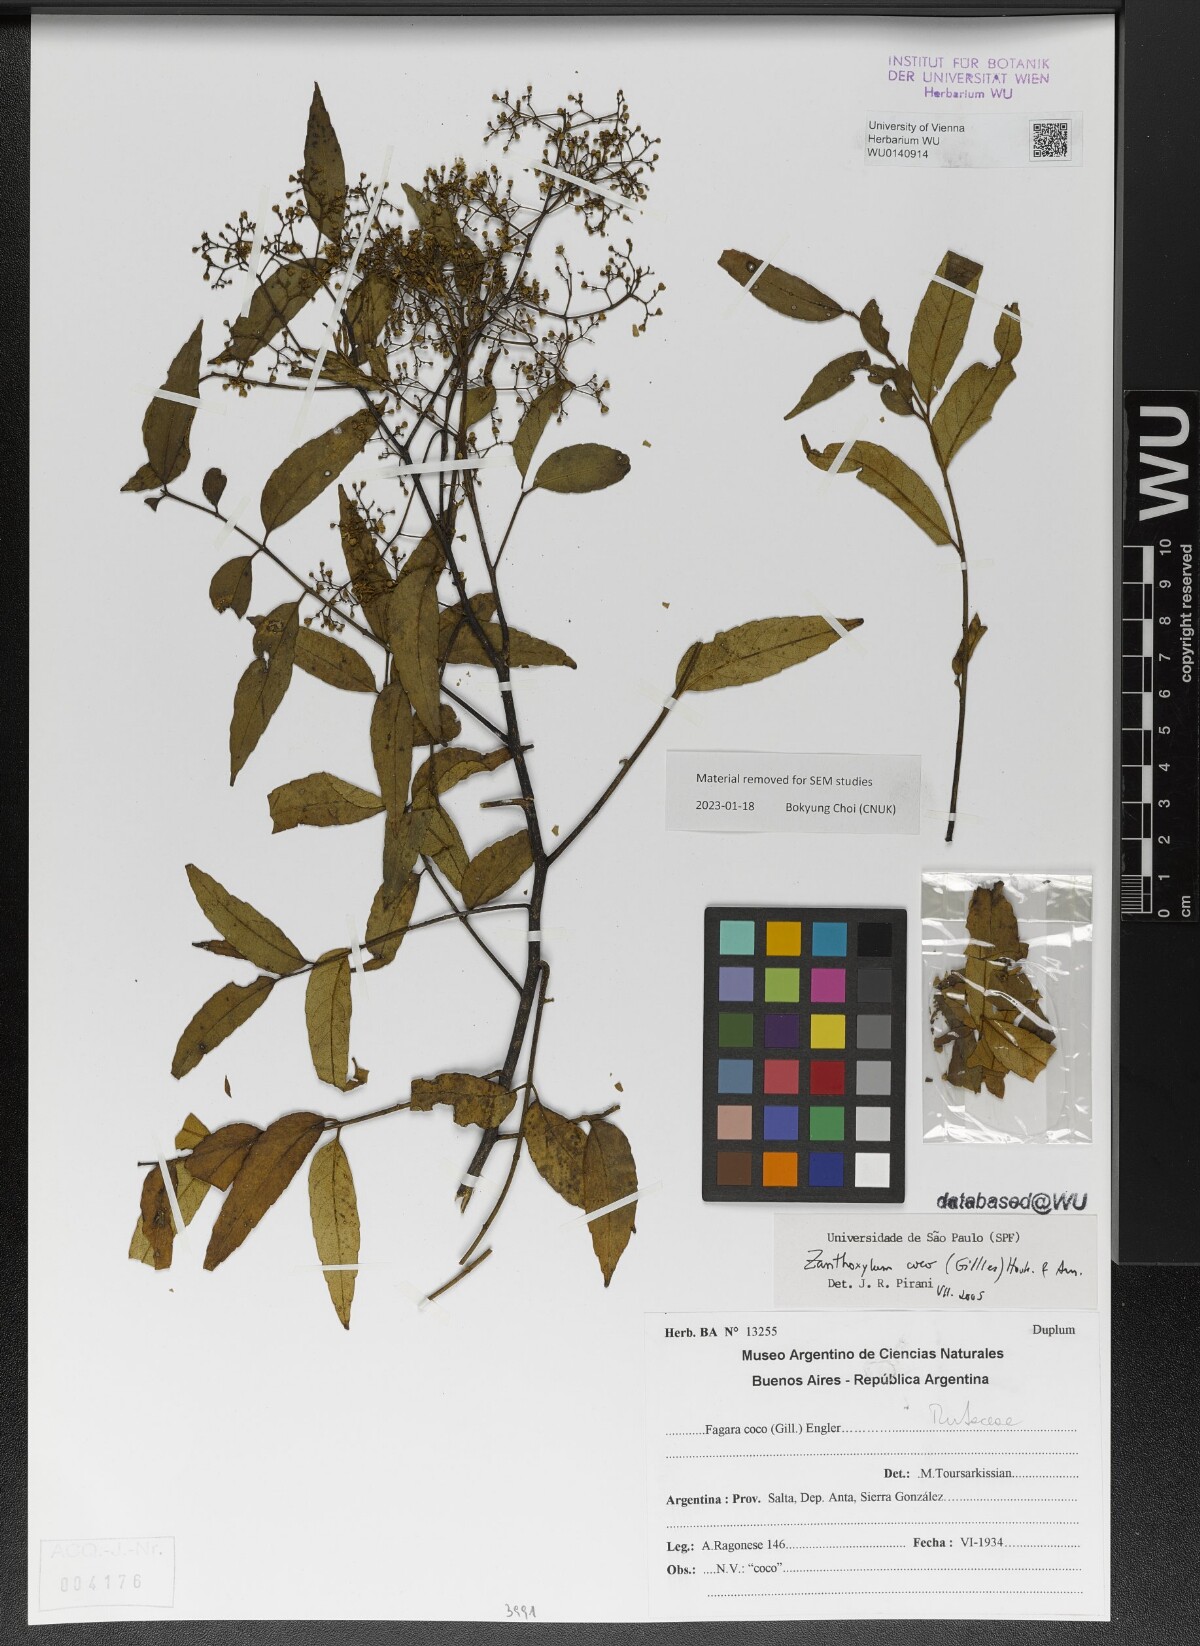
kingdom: Plantae
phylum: Tracheophyta
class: Magnoliopsida
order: Sapindales
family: Rutaceae
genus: Zanthoxylum
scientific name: Zanthoxylum coco
